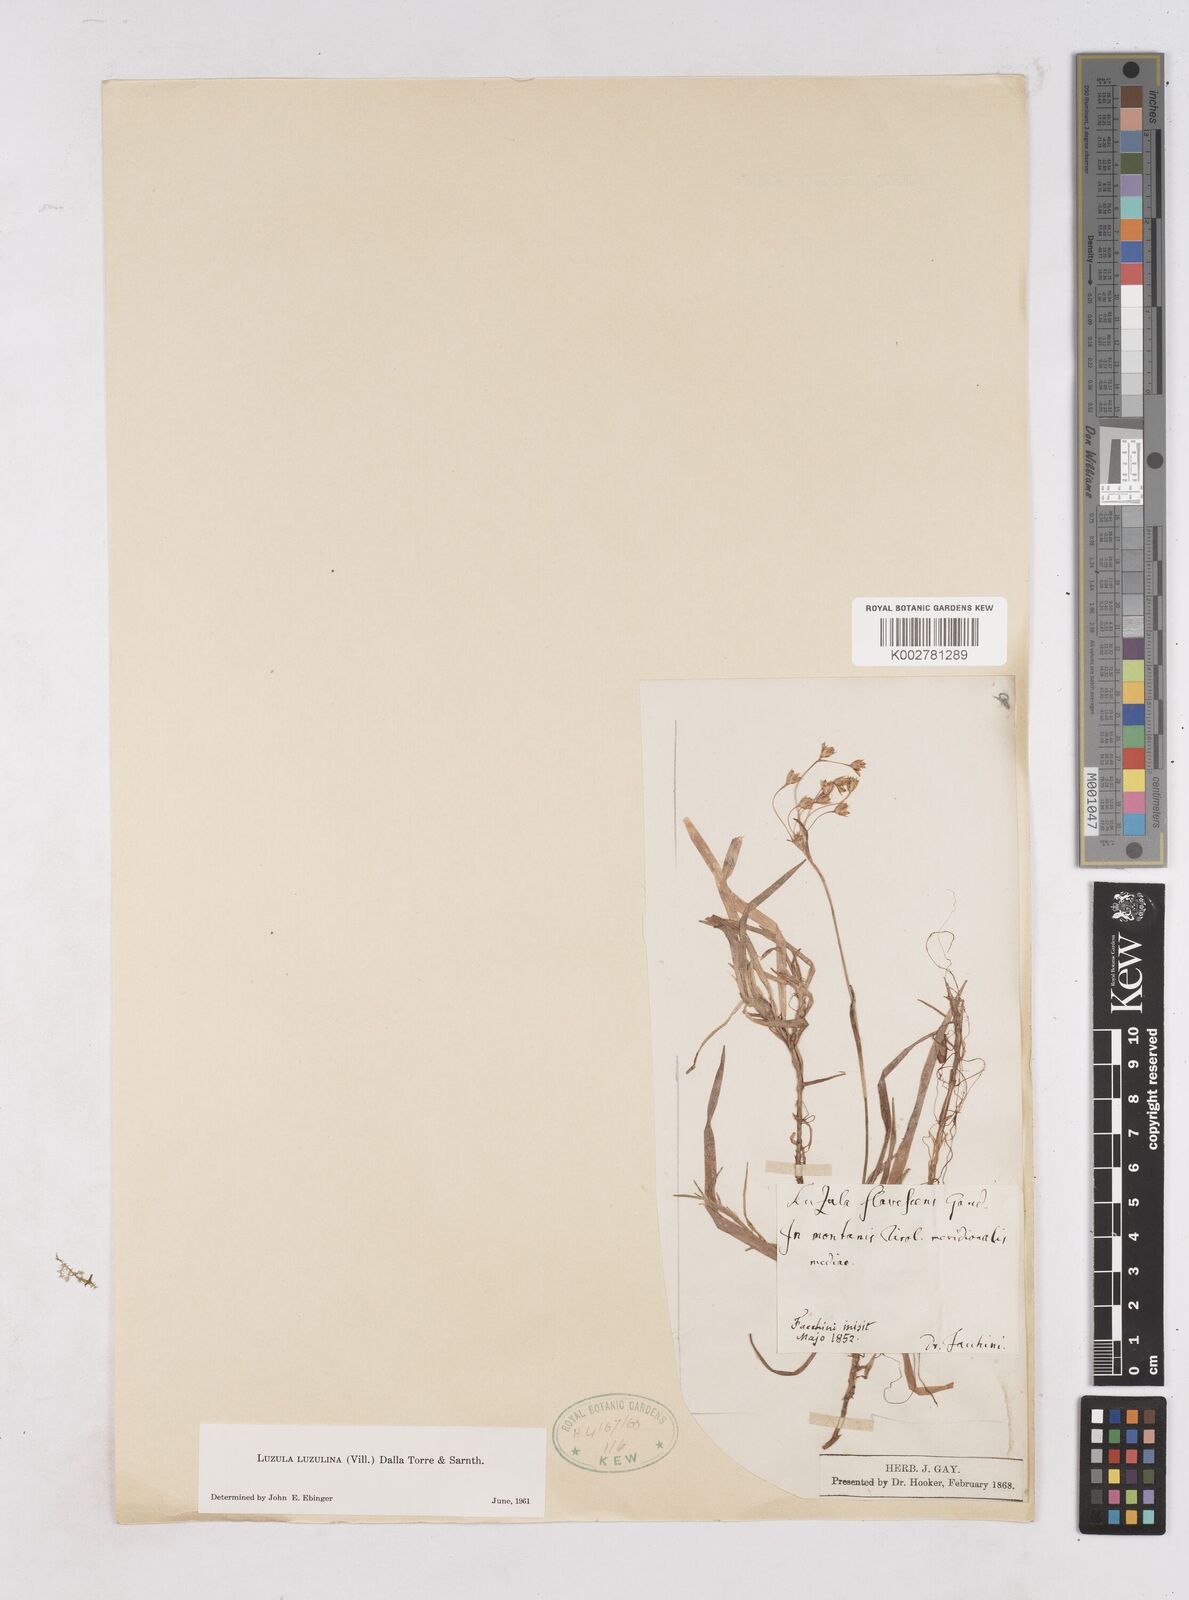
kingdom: Plantae
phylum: Tracheophyta
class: Liliopsida
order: Poales
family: Juncaceae
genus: Luzula
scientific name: Luzula luzulina
